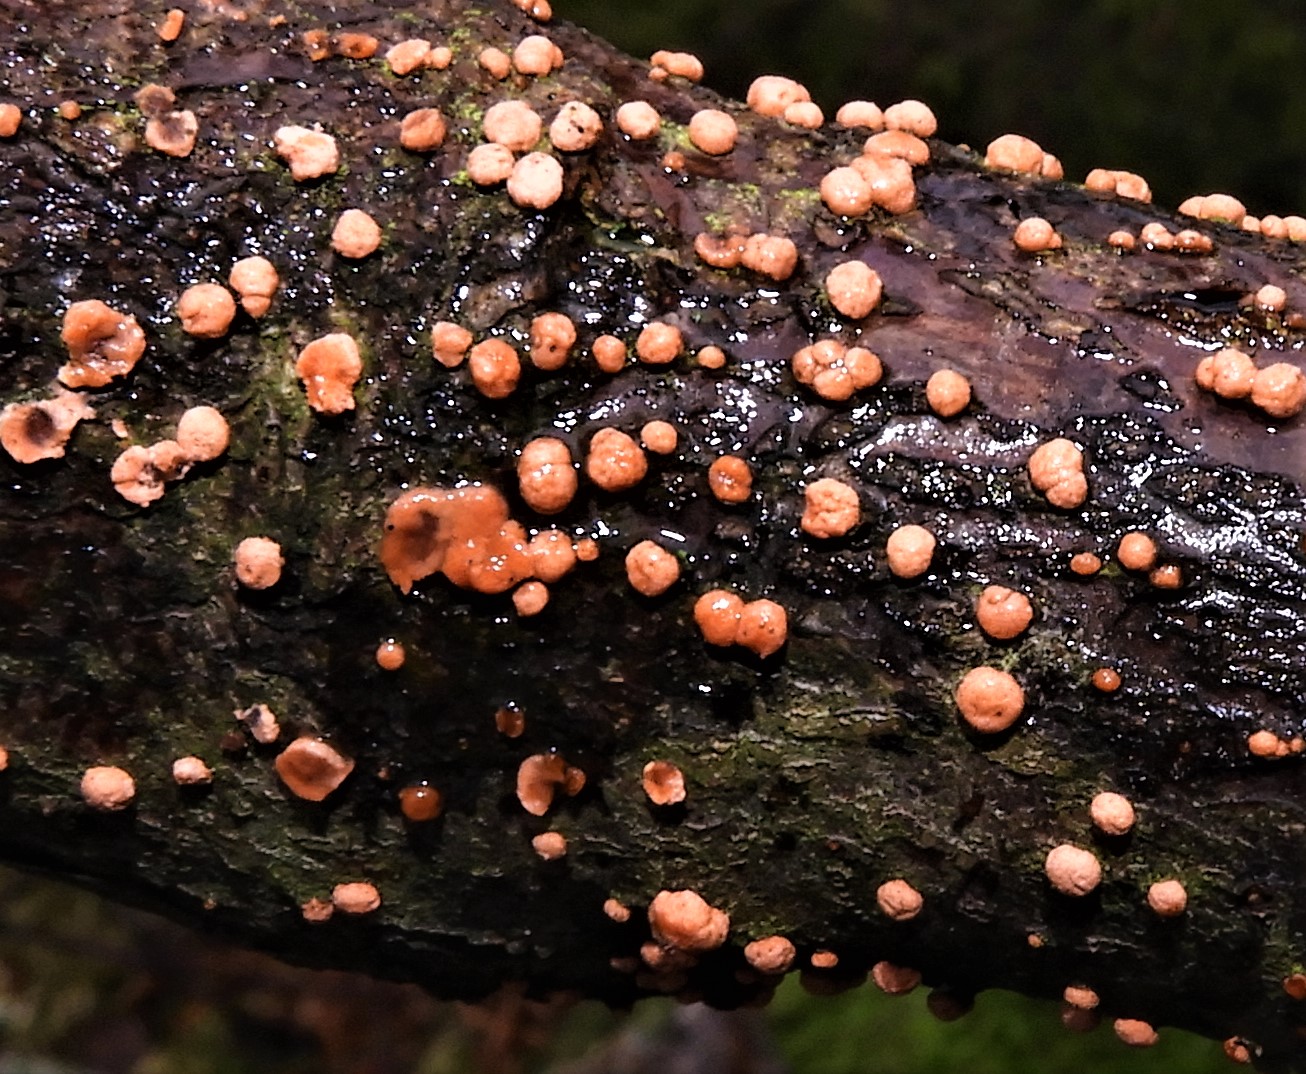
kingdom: Fungi
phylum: Ascomycota
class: Sordariomycetes
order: Hypocreales
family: Nectriaceae
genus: Nectria
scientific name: Nectria cinnabarina
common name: almindelig cinnobersvamp
